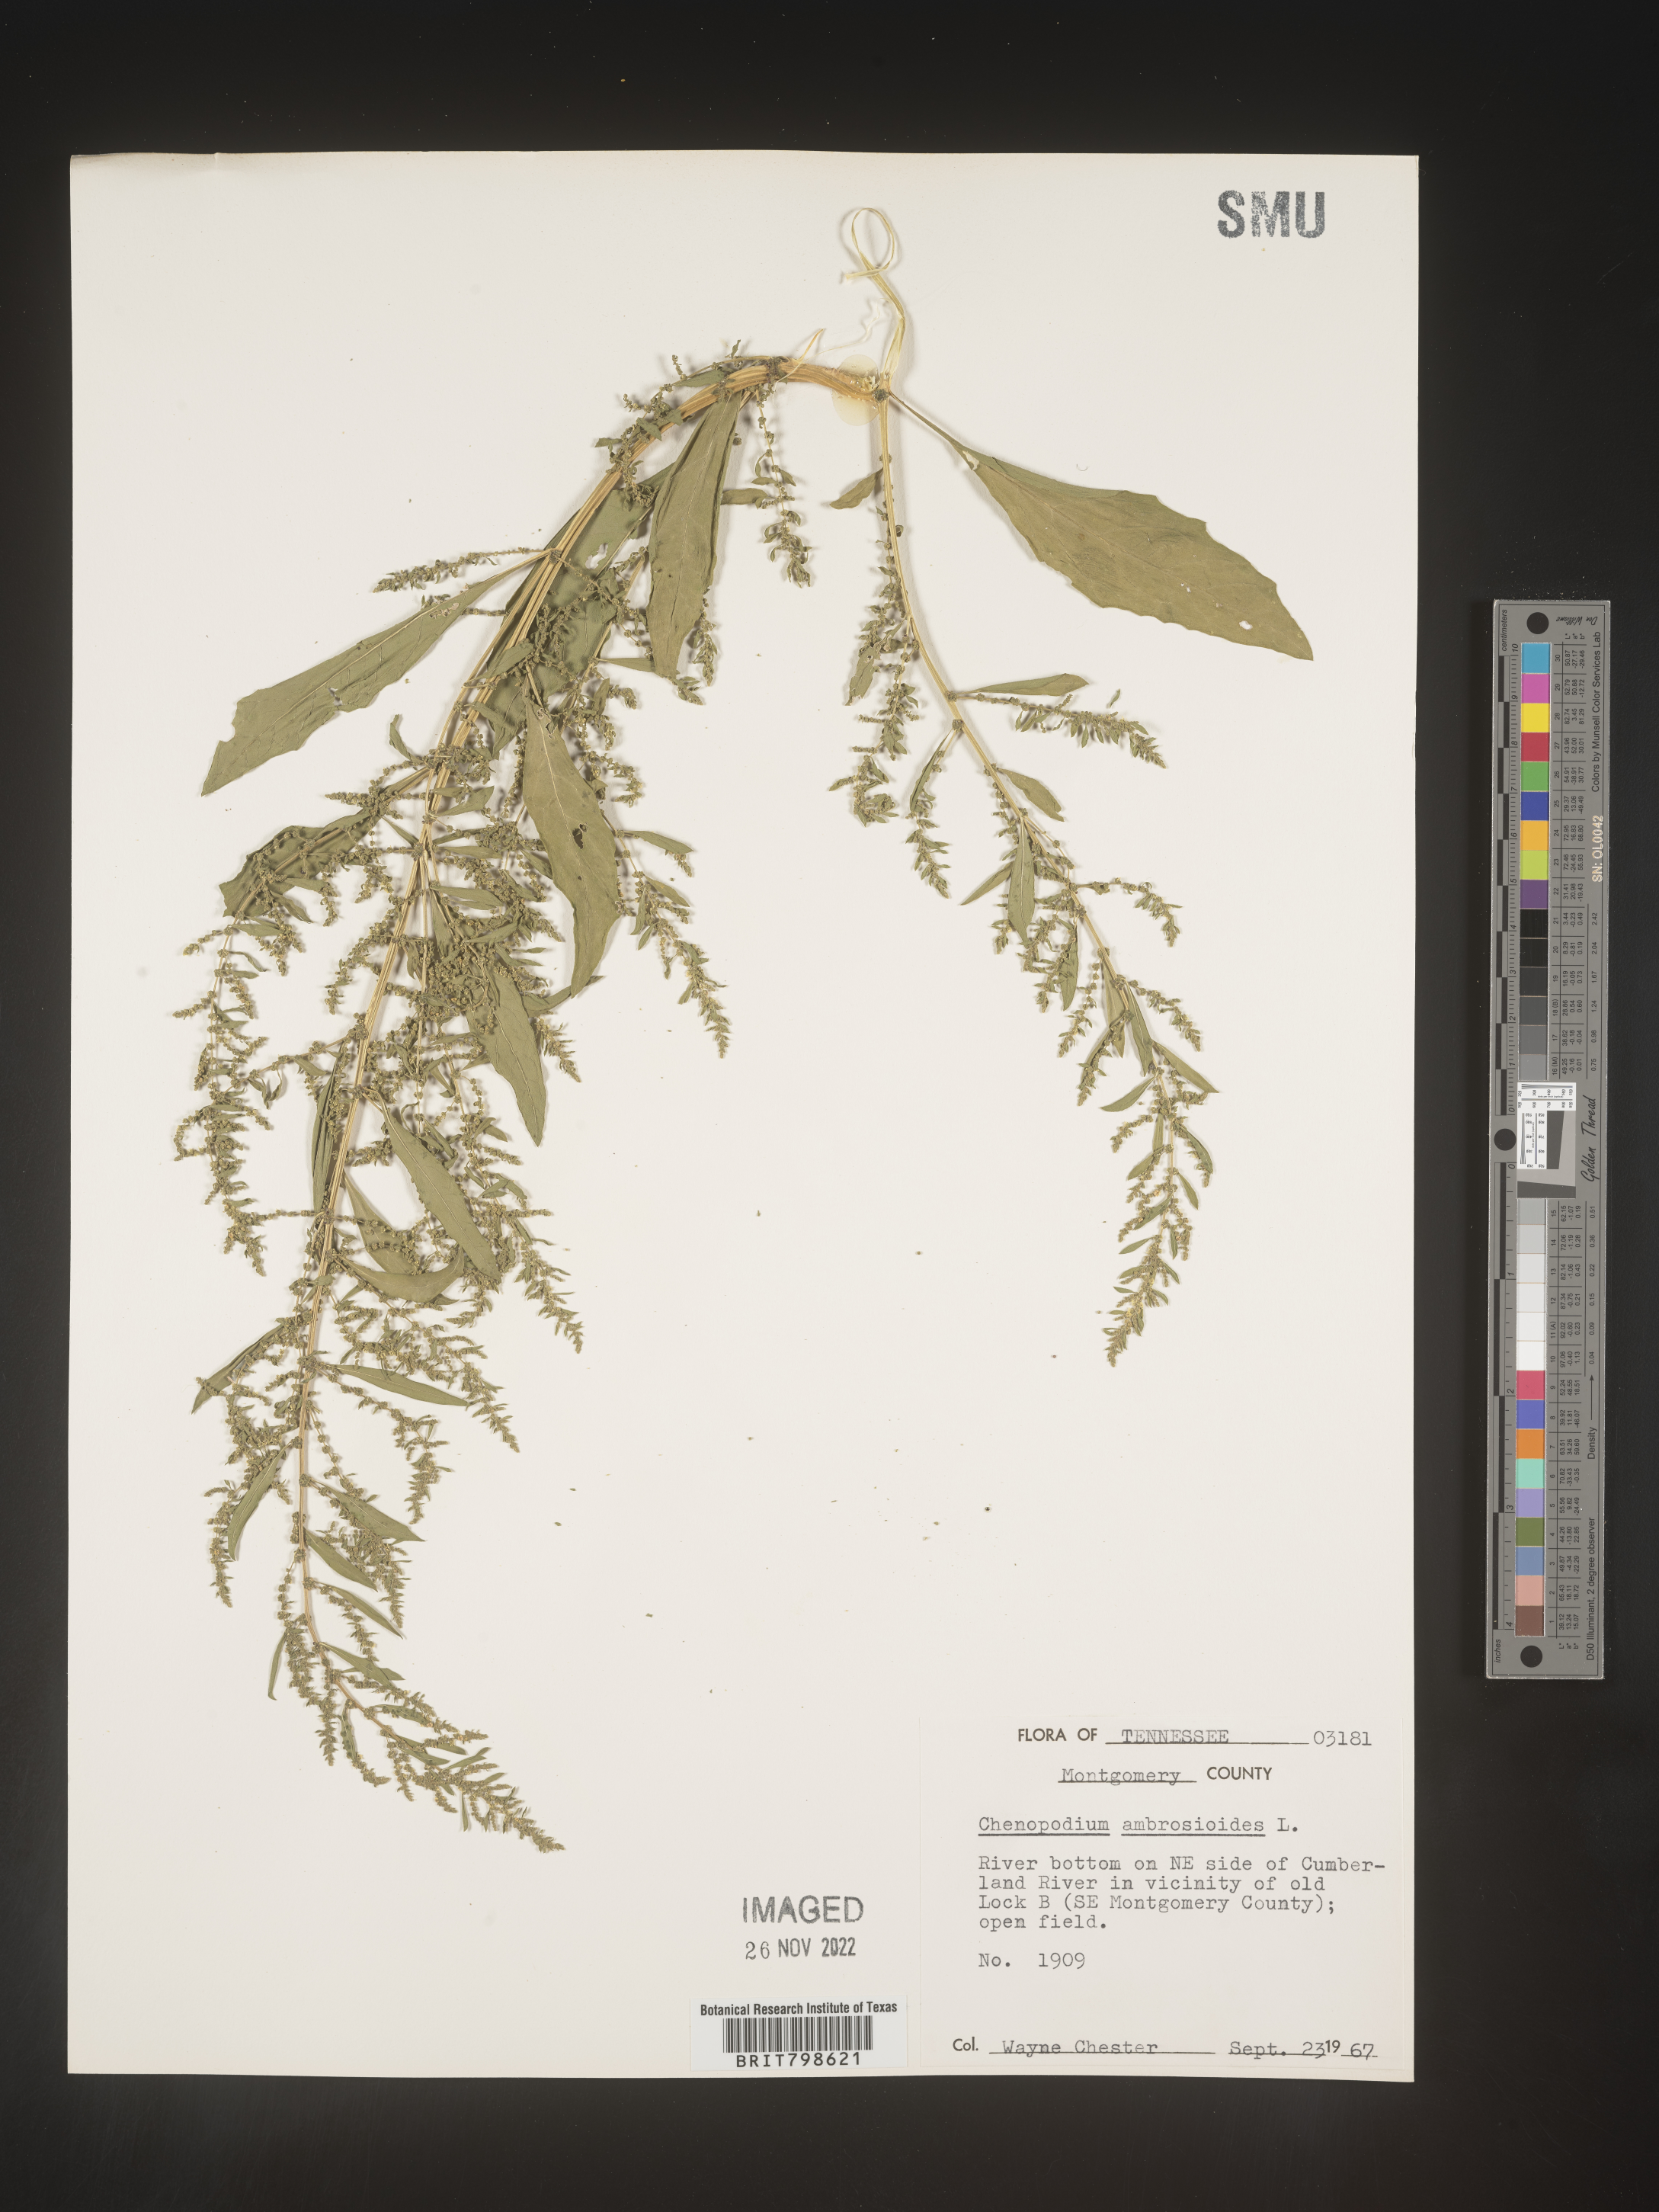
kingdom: Plantae
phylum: Tracheophyta
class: Magnoliopsida
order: Caryophyllales
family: Amaranthaceae
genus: Dysphania
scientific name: Dysphania ambrosioides
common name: Wormseed
